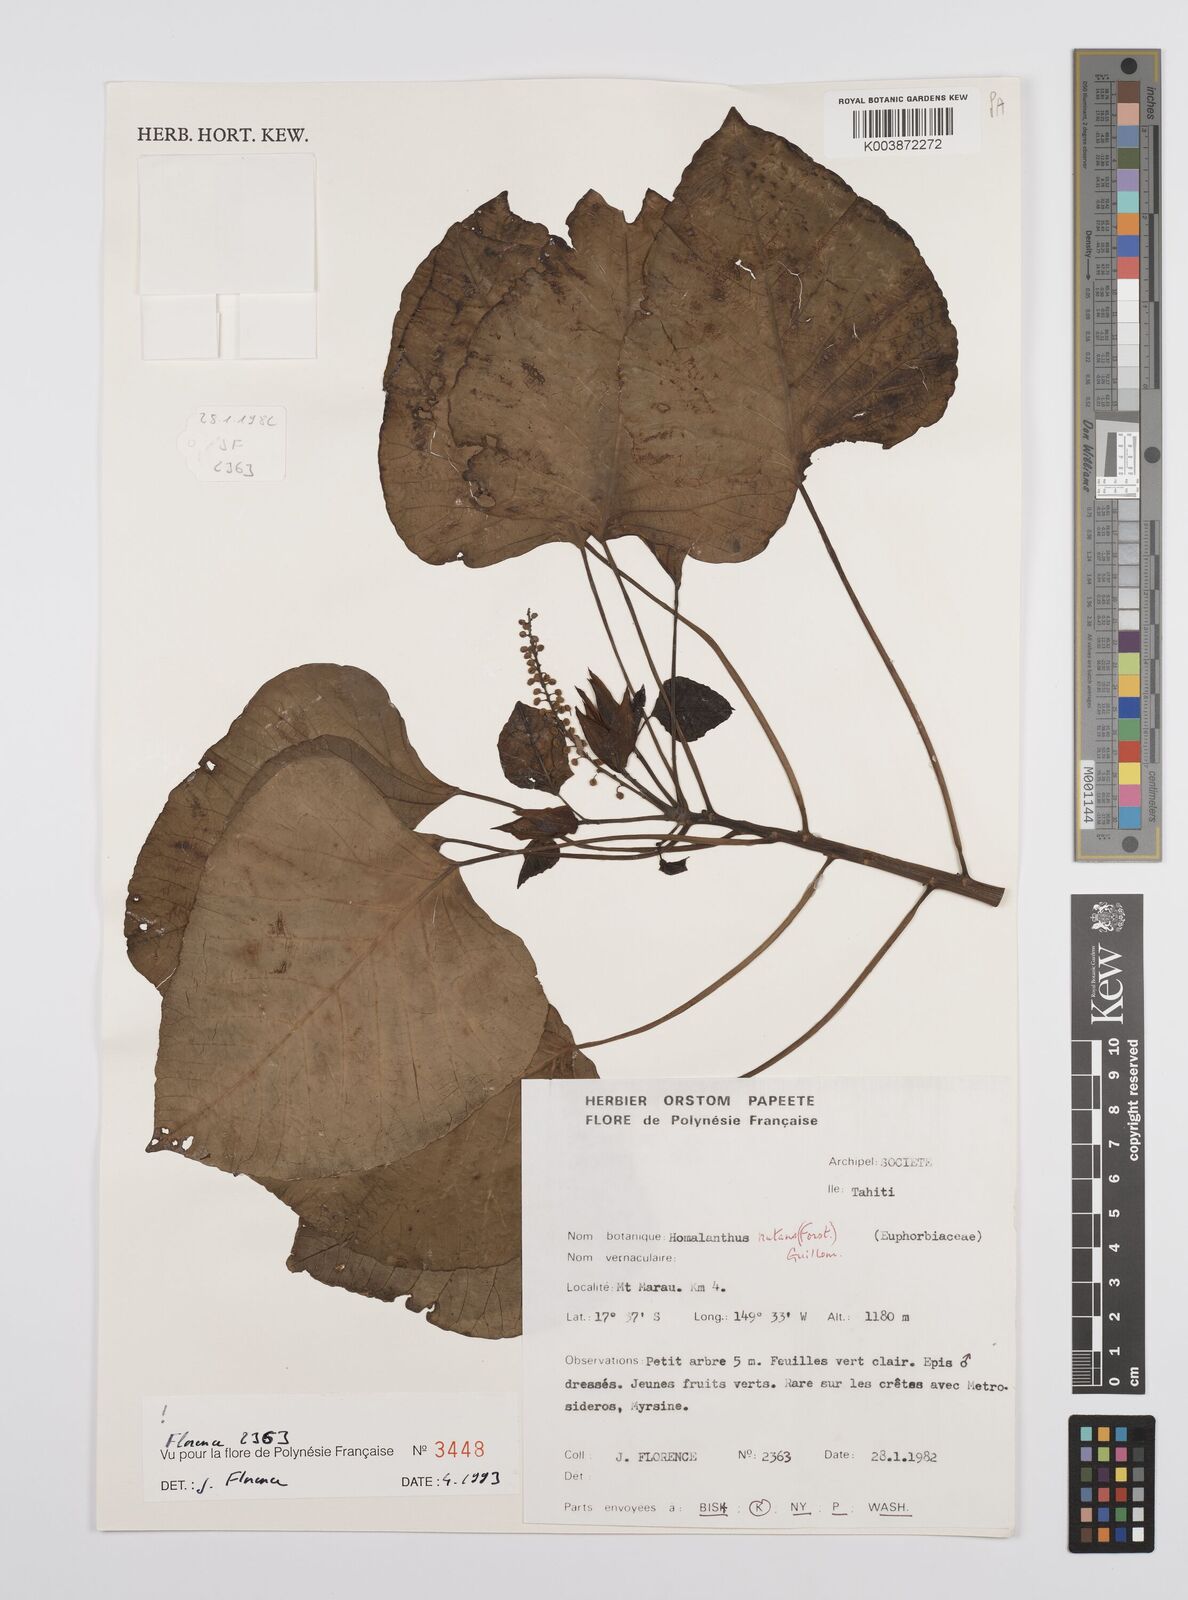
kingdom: Plantae
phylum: Tracheophyta
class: Magnoliopsida
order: Malpighiales
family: Euphorbiaceae
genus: Homalanthus
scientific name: Homalanthus nutans
